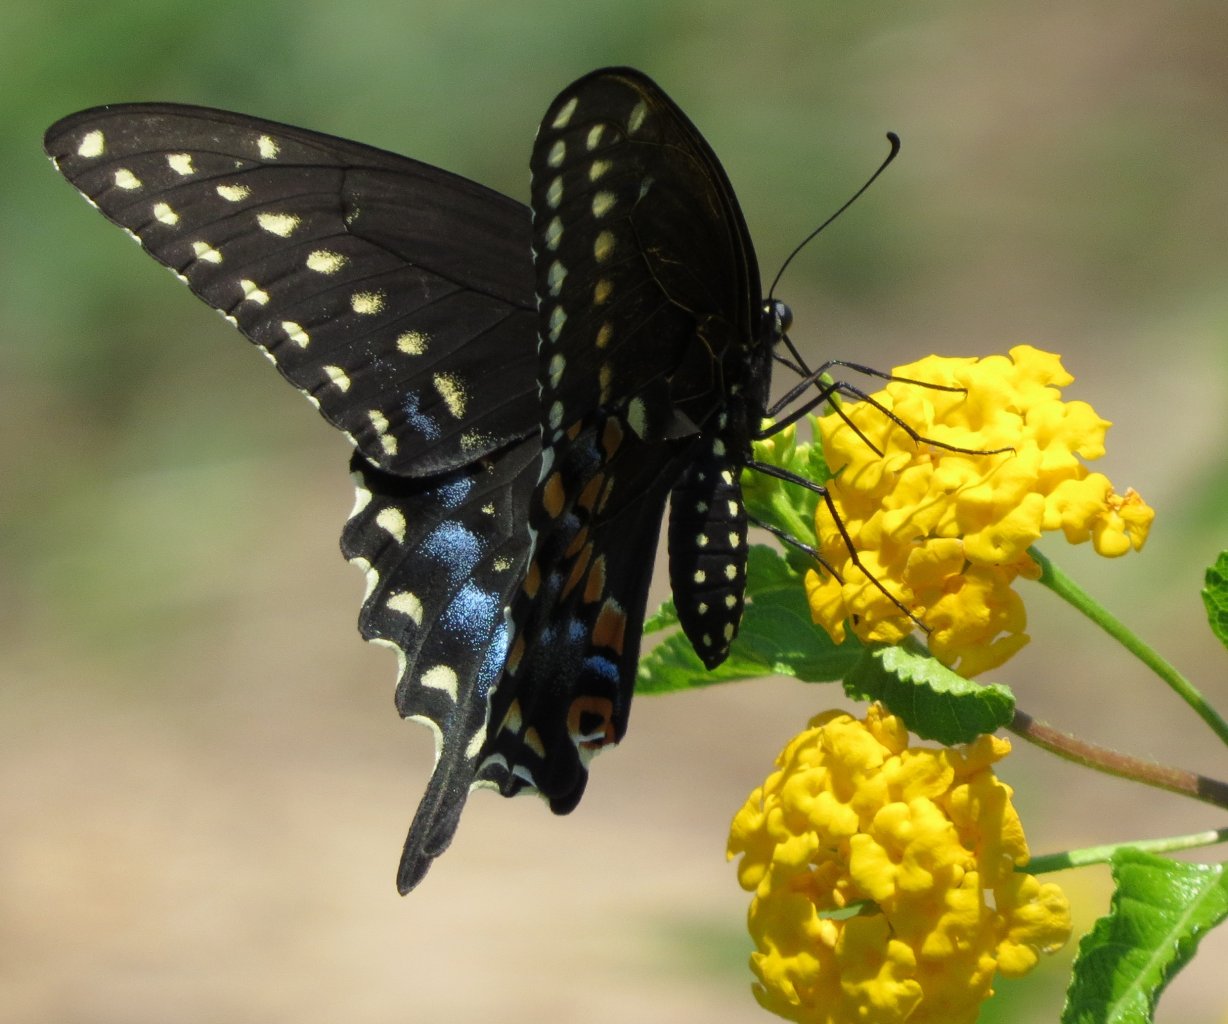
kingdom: Animalia
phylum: Arthropoda
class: Insecta
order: Lepidoptera
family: Papilionidae
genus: Papilio
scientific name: Papilio polyxenes
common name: Black Swallowtail
